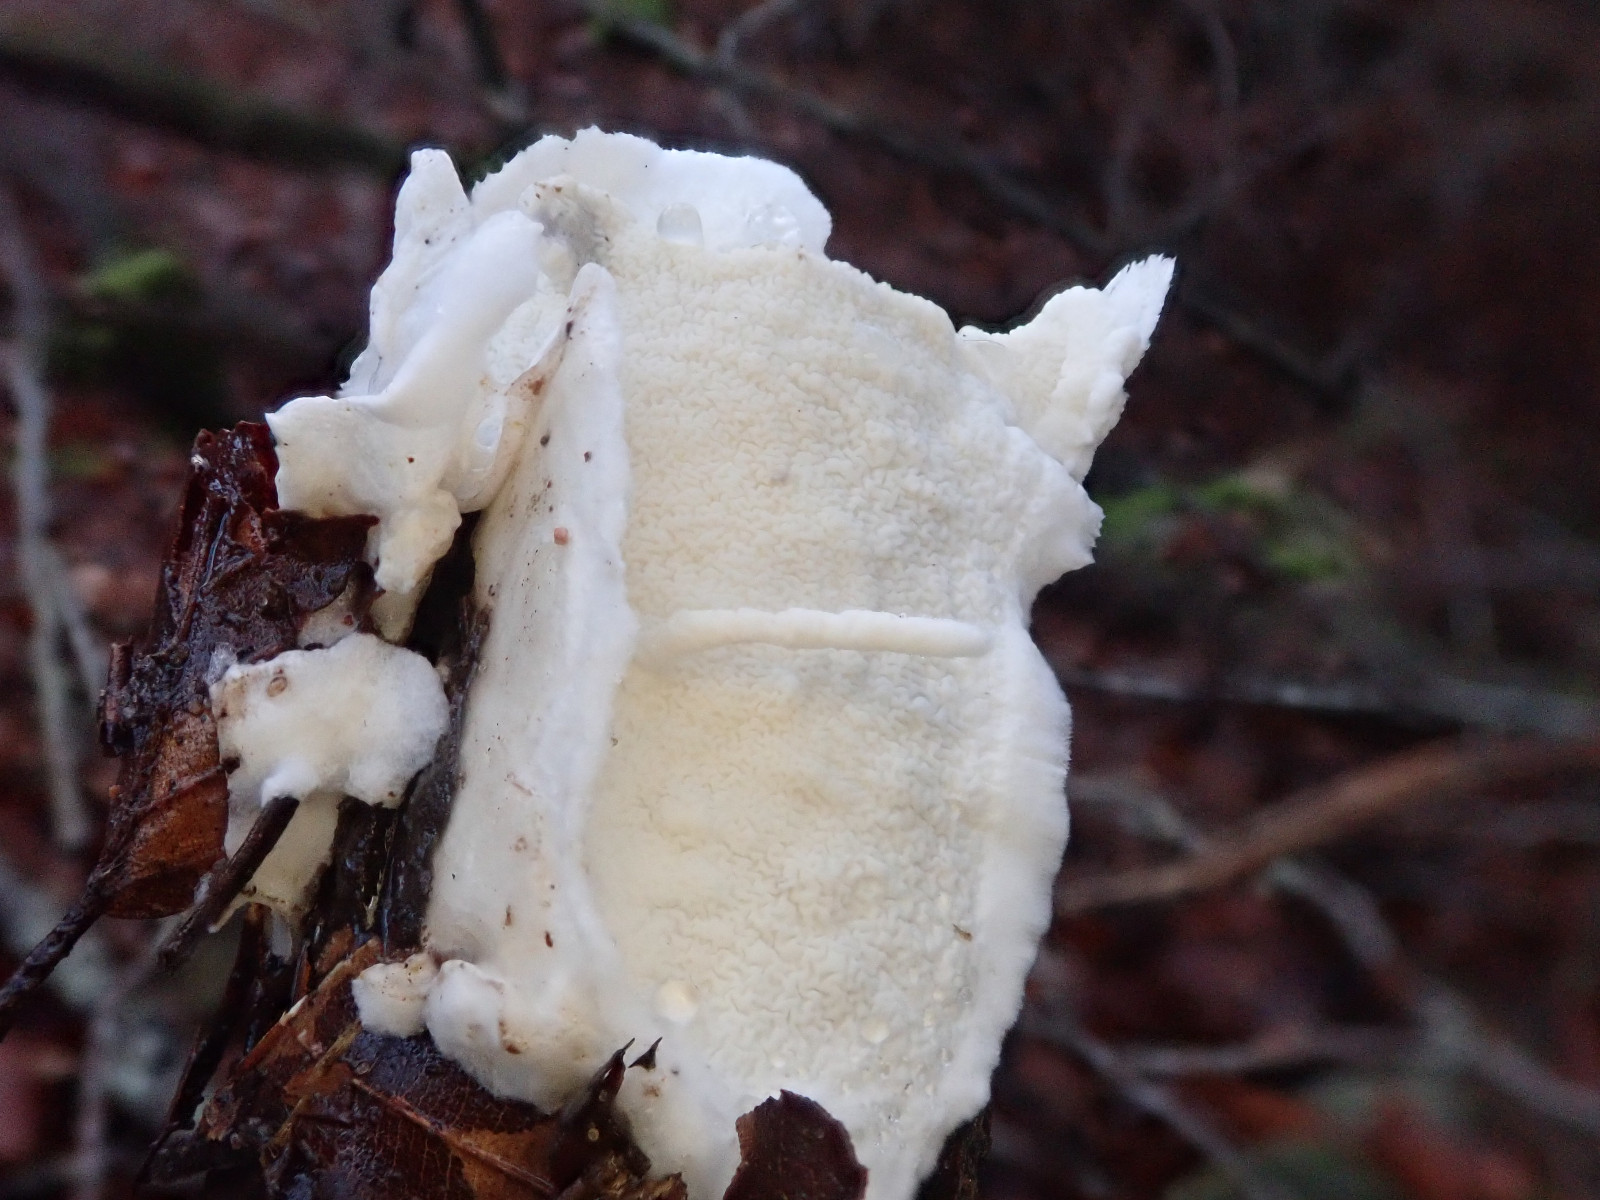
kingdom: Fungi
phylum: Basidiomycota
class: Agaricomycetes
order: Polyporales
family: Irpicaceae
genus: Byssomerulius
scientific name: Byssomerulius corium
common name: læder-åresvamp
